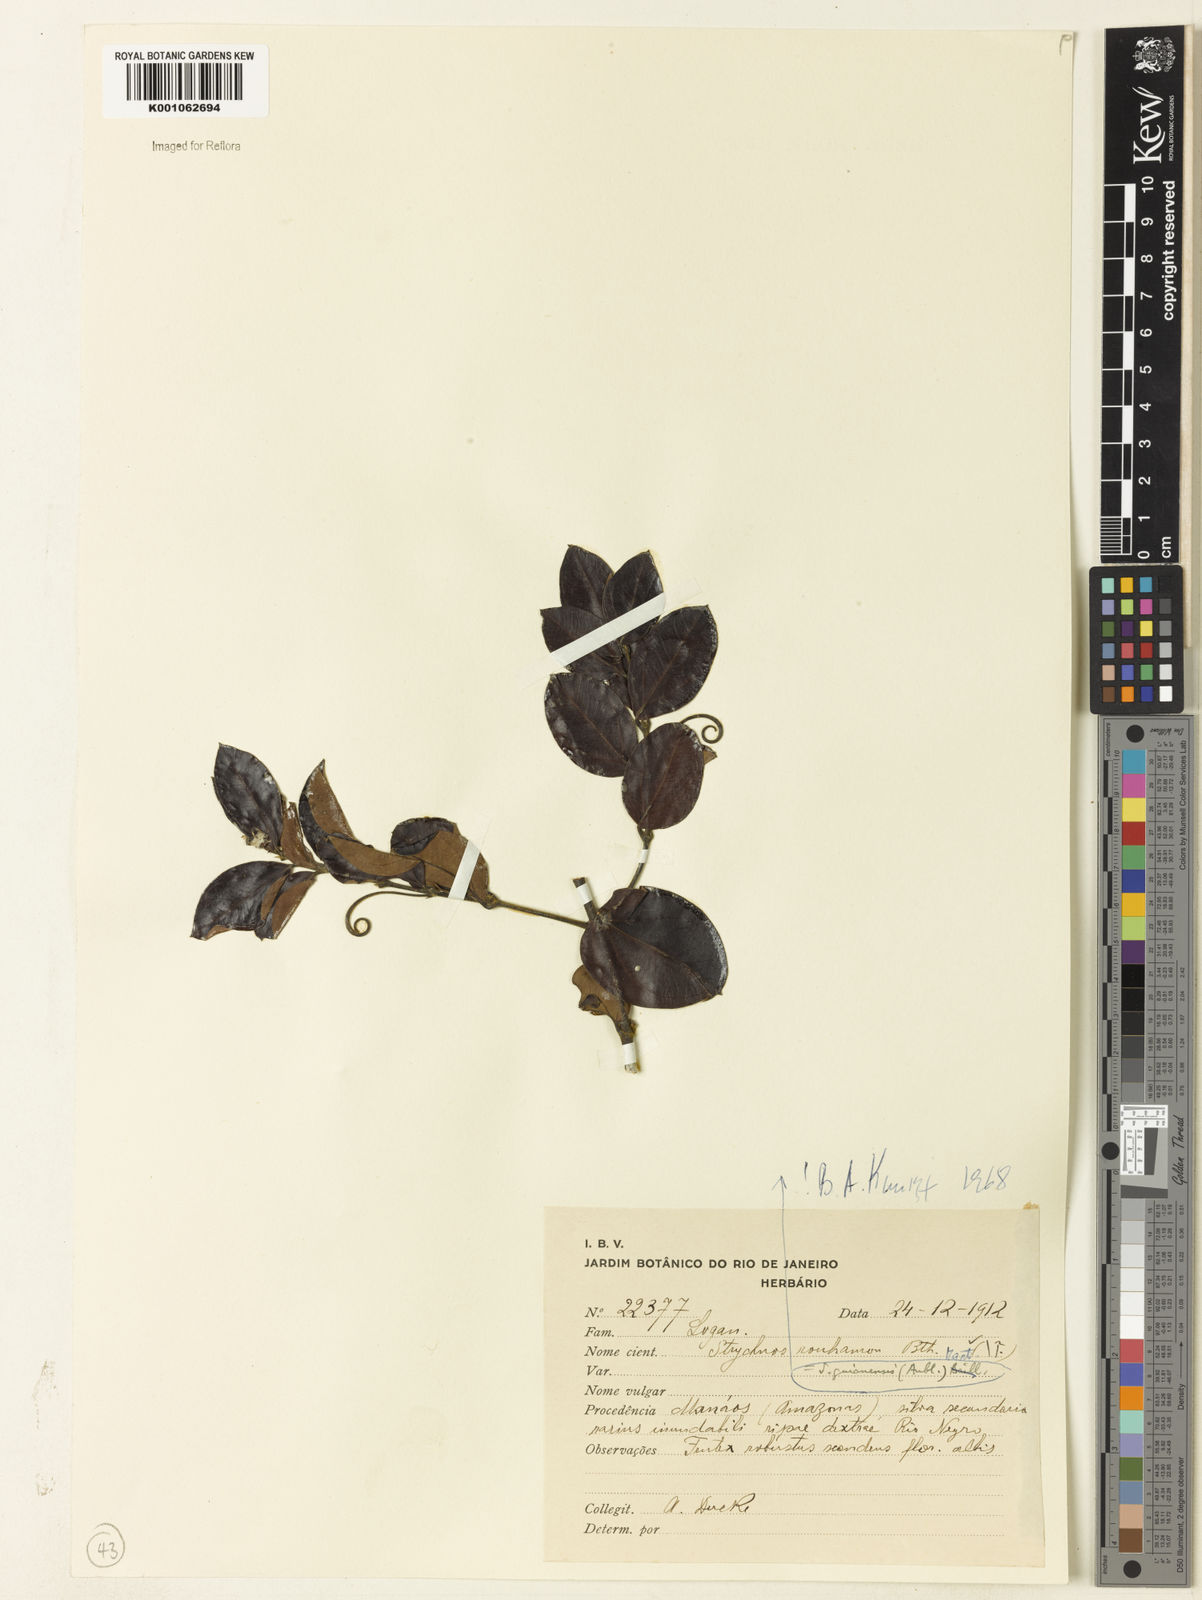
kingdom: Plantae
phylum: Tracheophyta
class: Magnoliopsida
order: Gentianales
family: Loganiaceae
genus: Strychnos
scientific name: Strychnos guianensis
